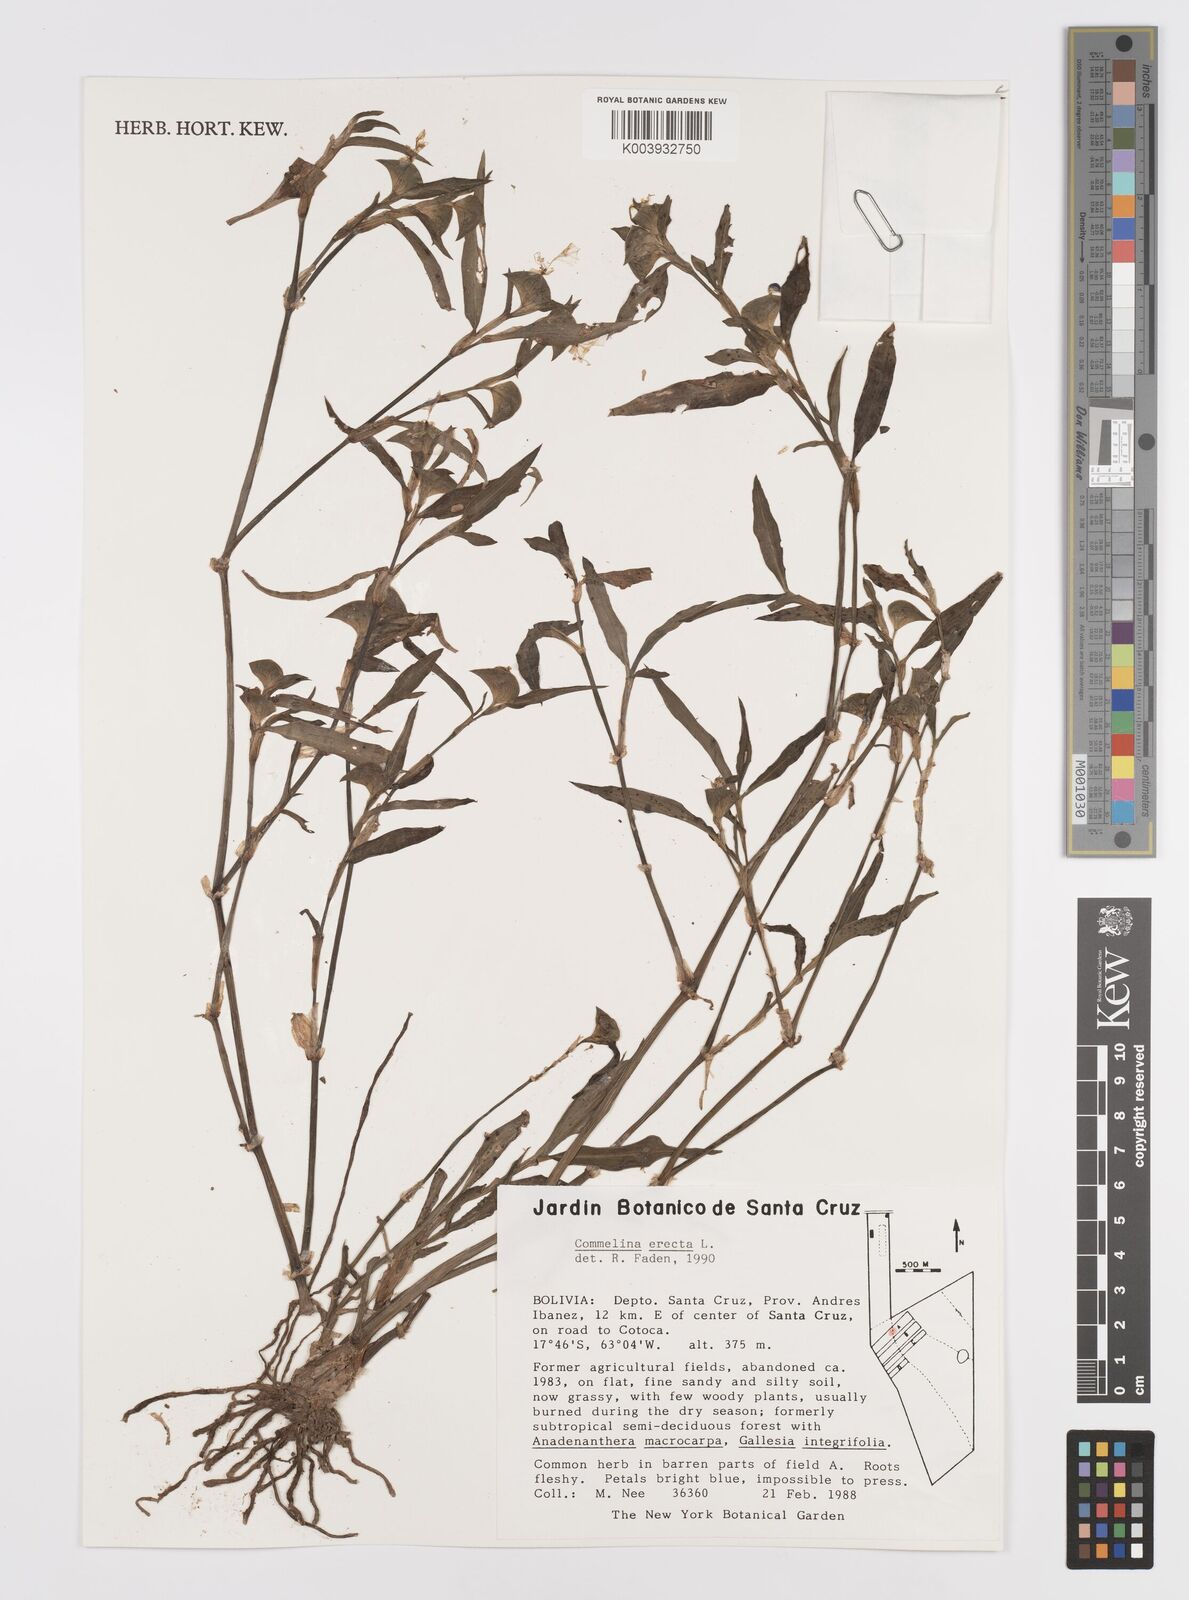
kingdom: Plantae
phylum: Tracheophyta
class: Liliopsida
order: Commelinales
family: Commelinaceae
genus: Commelina
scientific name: Commelina erecta
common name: Blousel blommetjie
